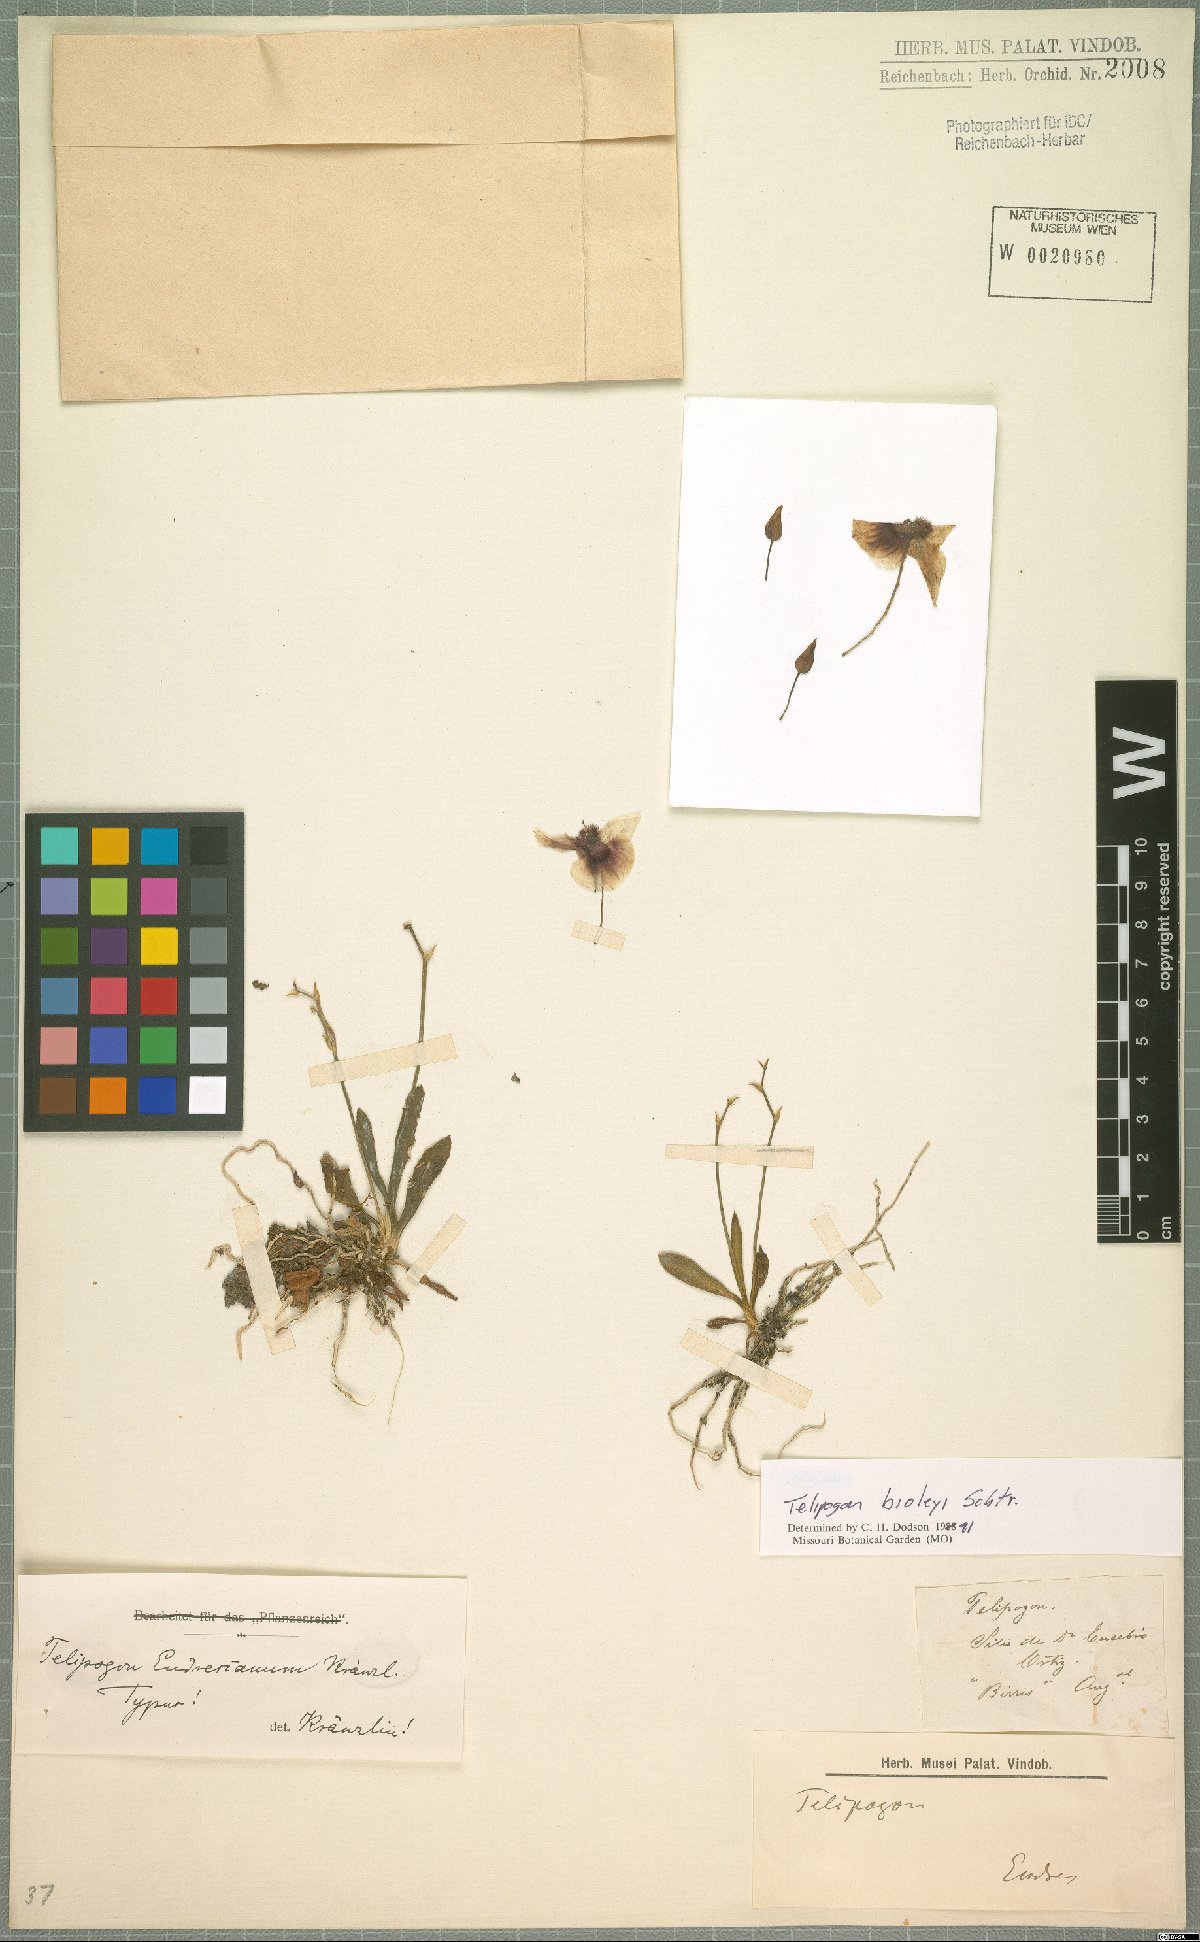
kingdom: Plantae
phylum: Tracheophyta
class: Liliopsida
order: Asparagales
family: Orchidaceae
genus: Telipogon
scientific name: Telipogon biolleyi
